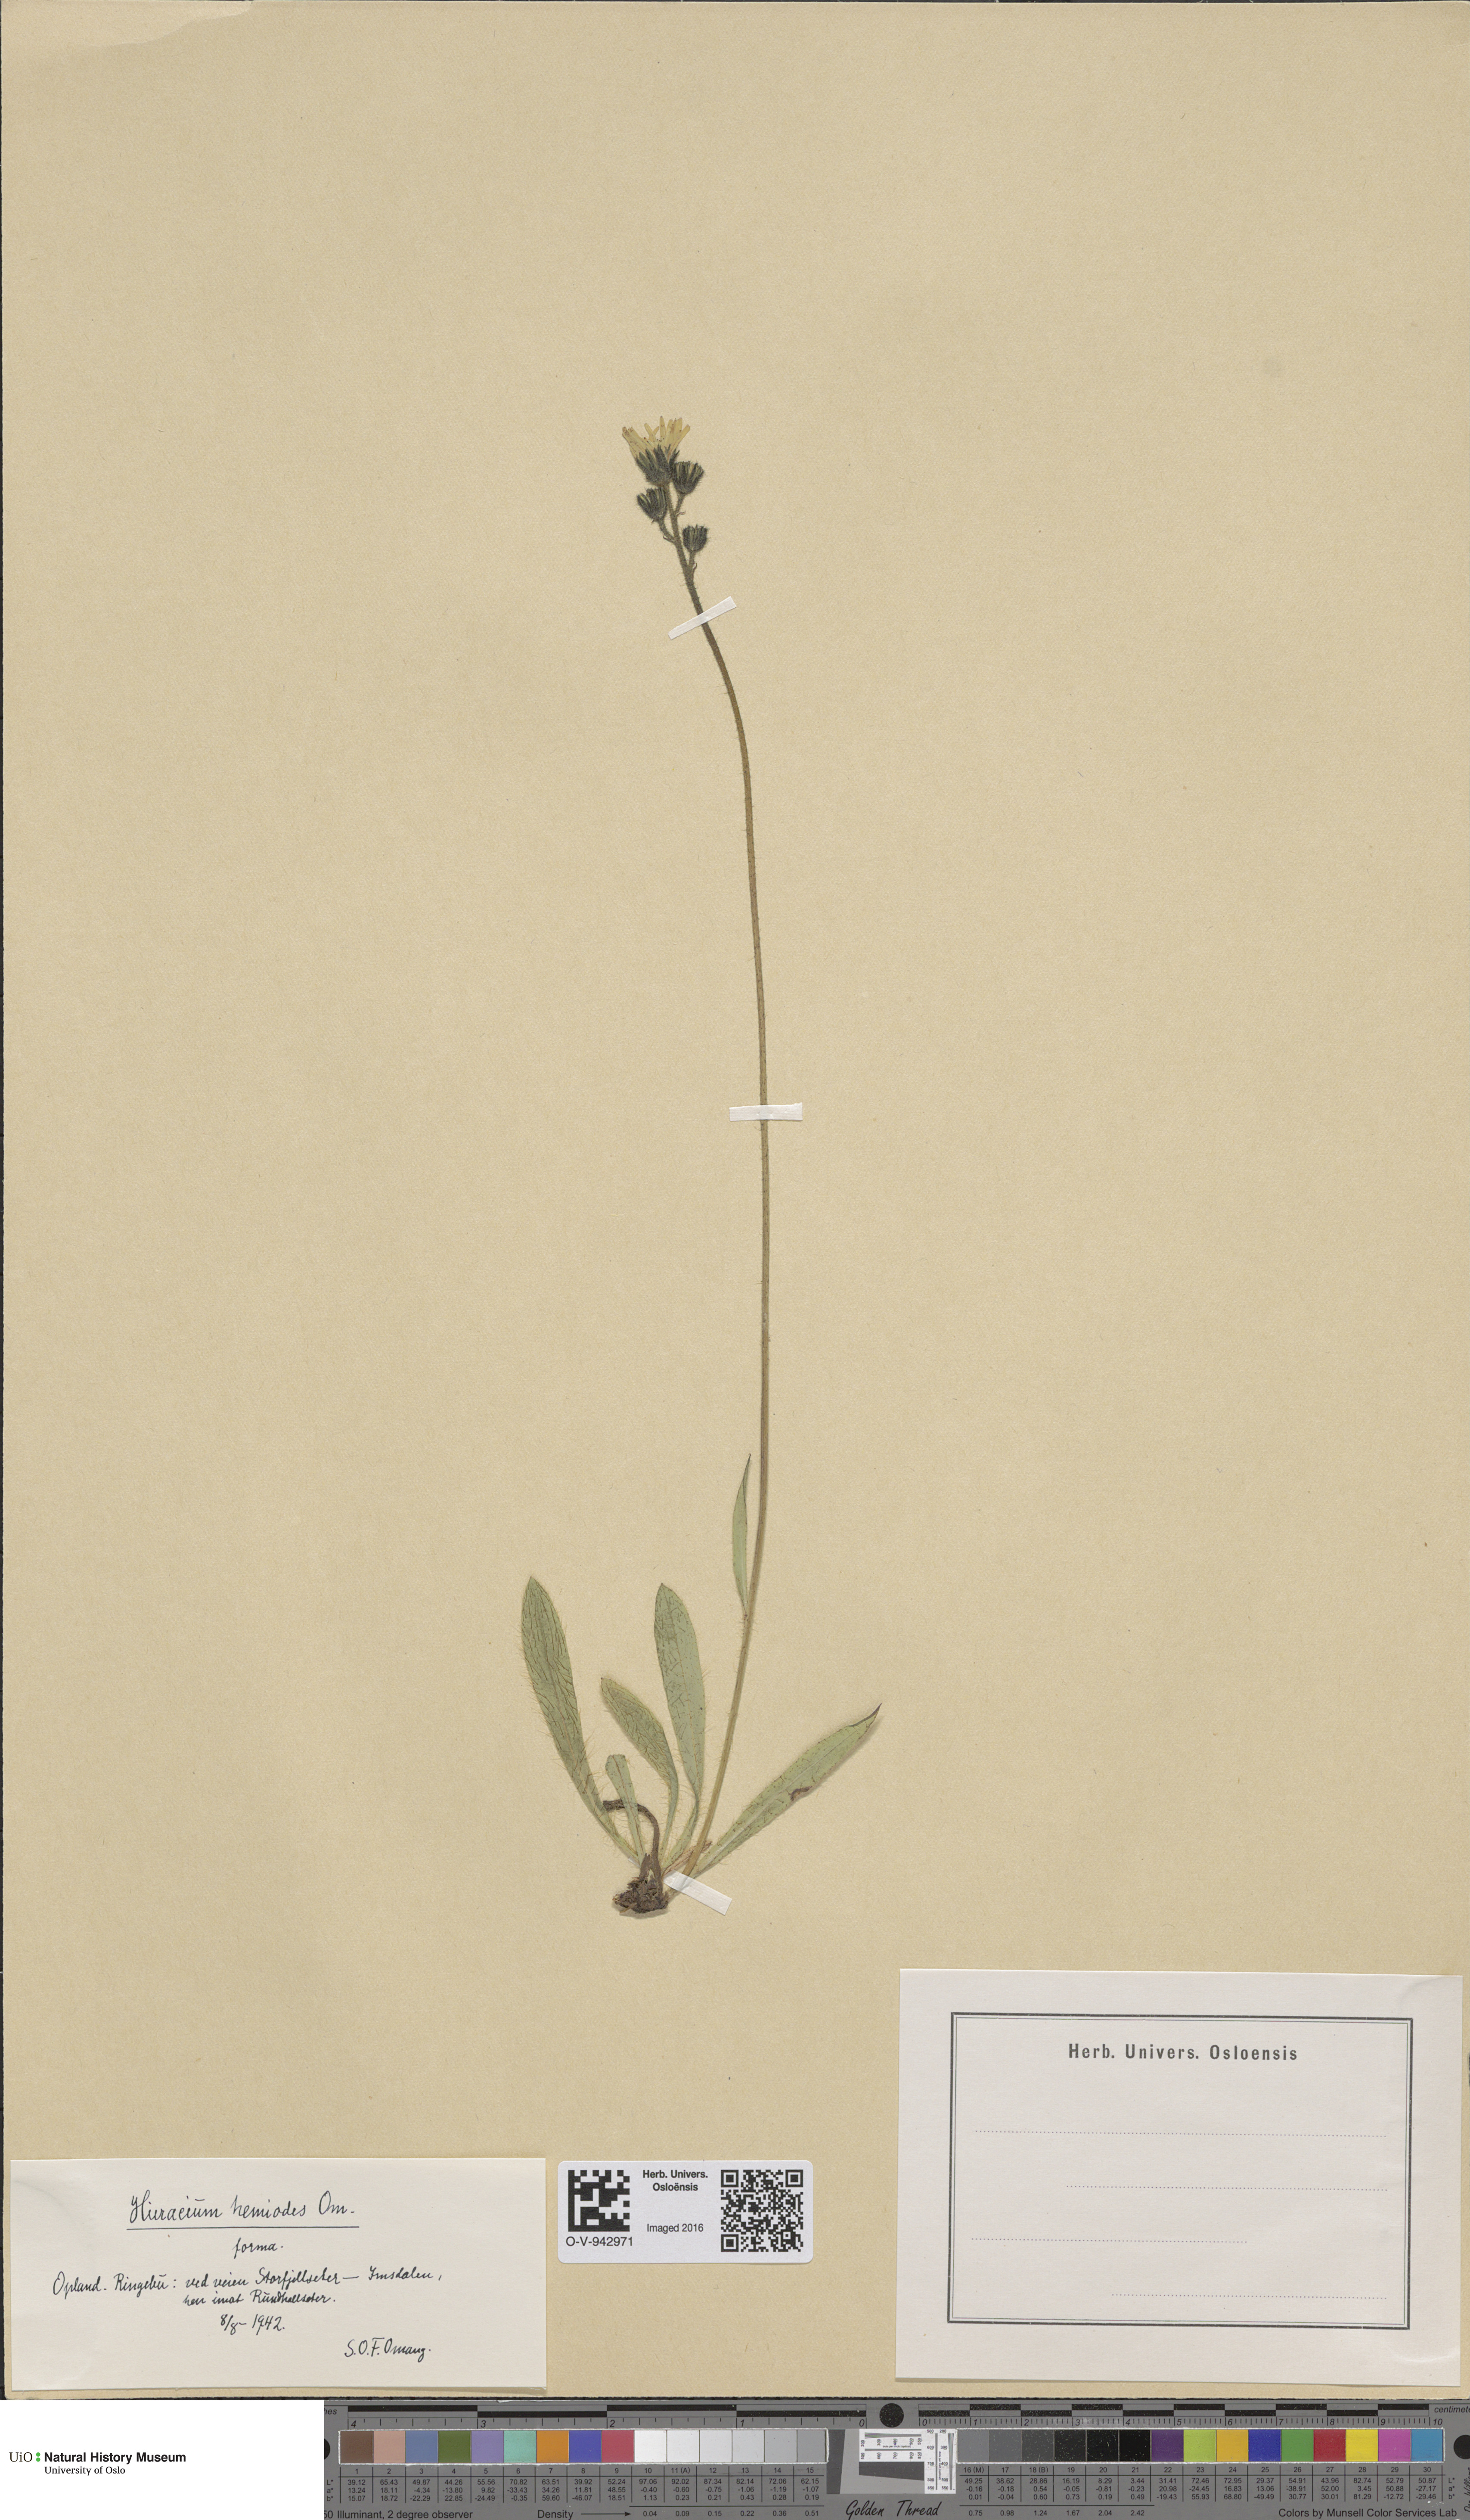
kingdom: Plantae
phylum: Tracheophyta
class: Magnoliopsida
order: Asterales
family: Asteraceae
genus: Pilosella
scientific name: Pilosella dubia
